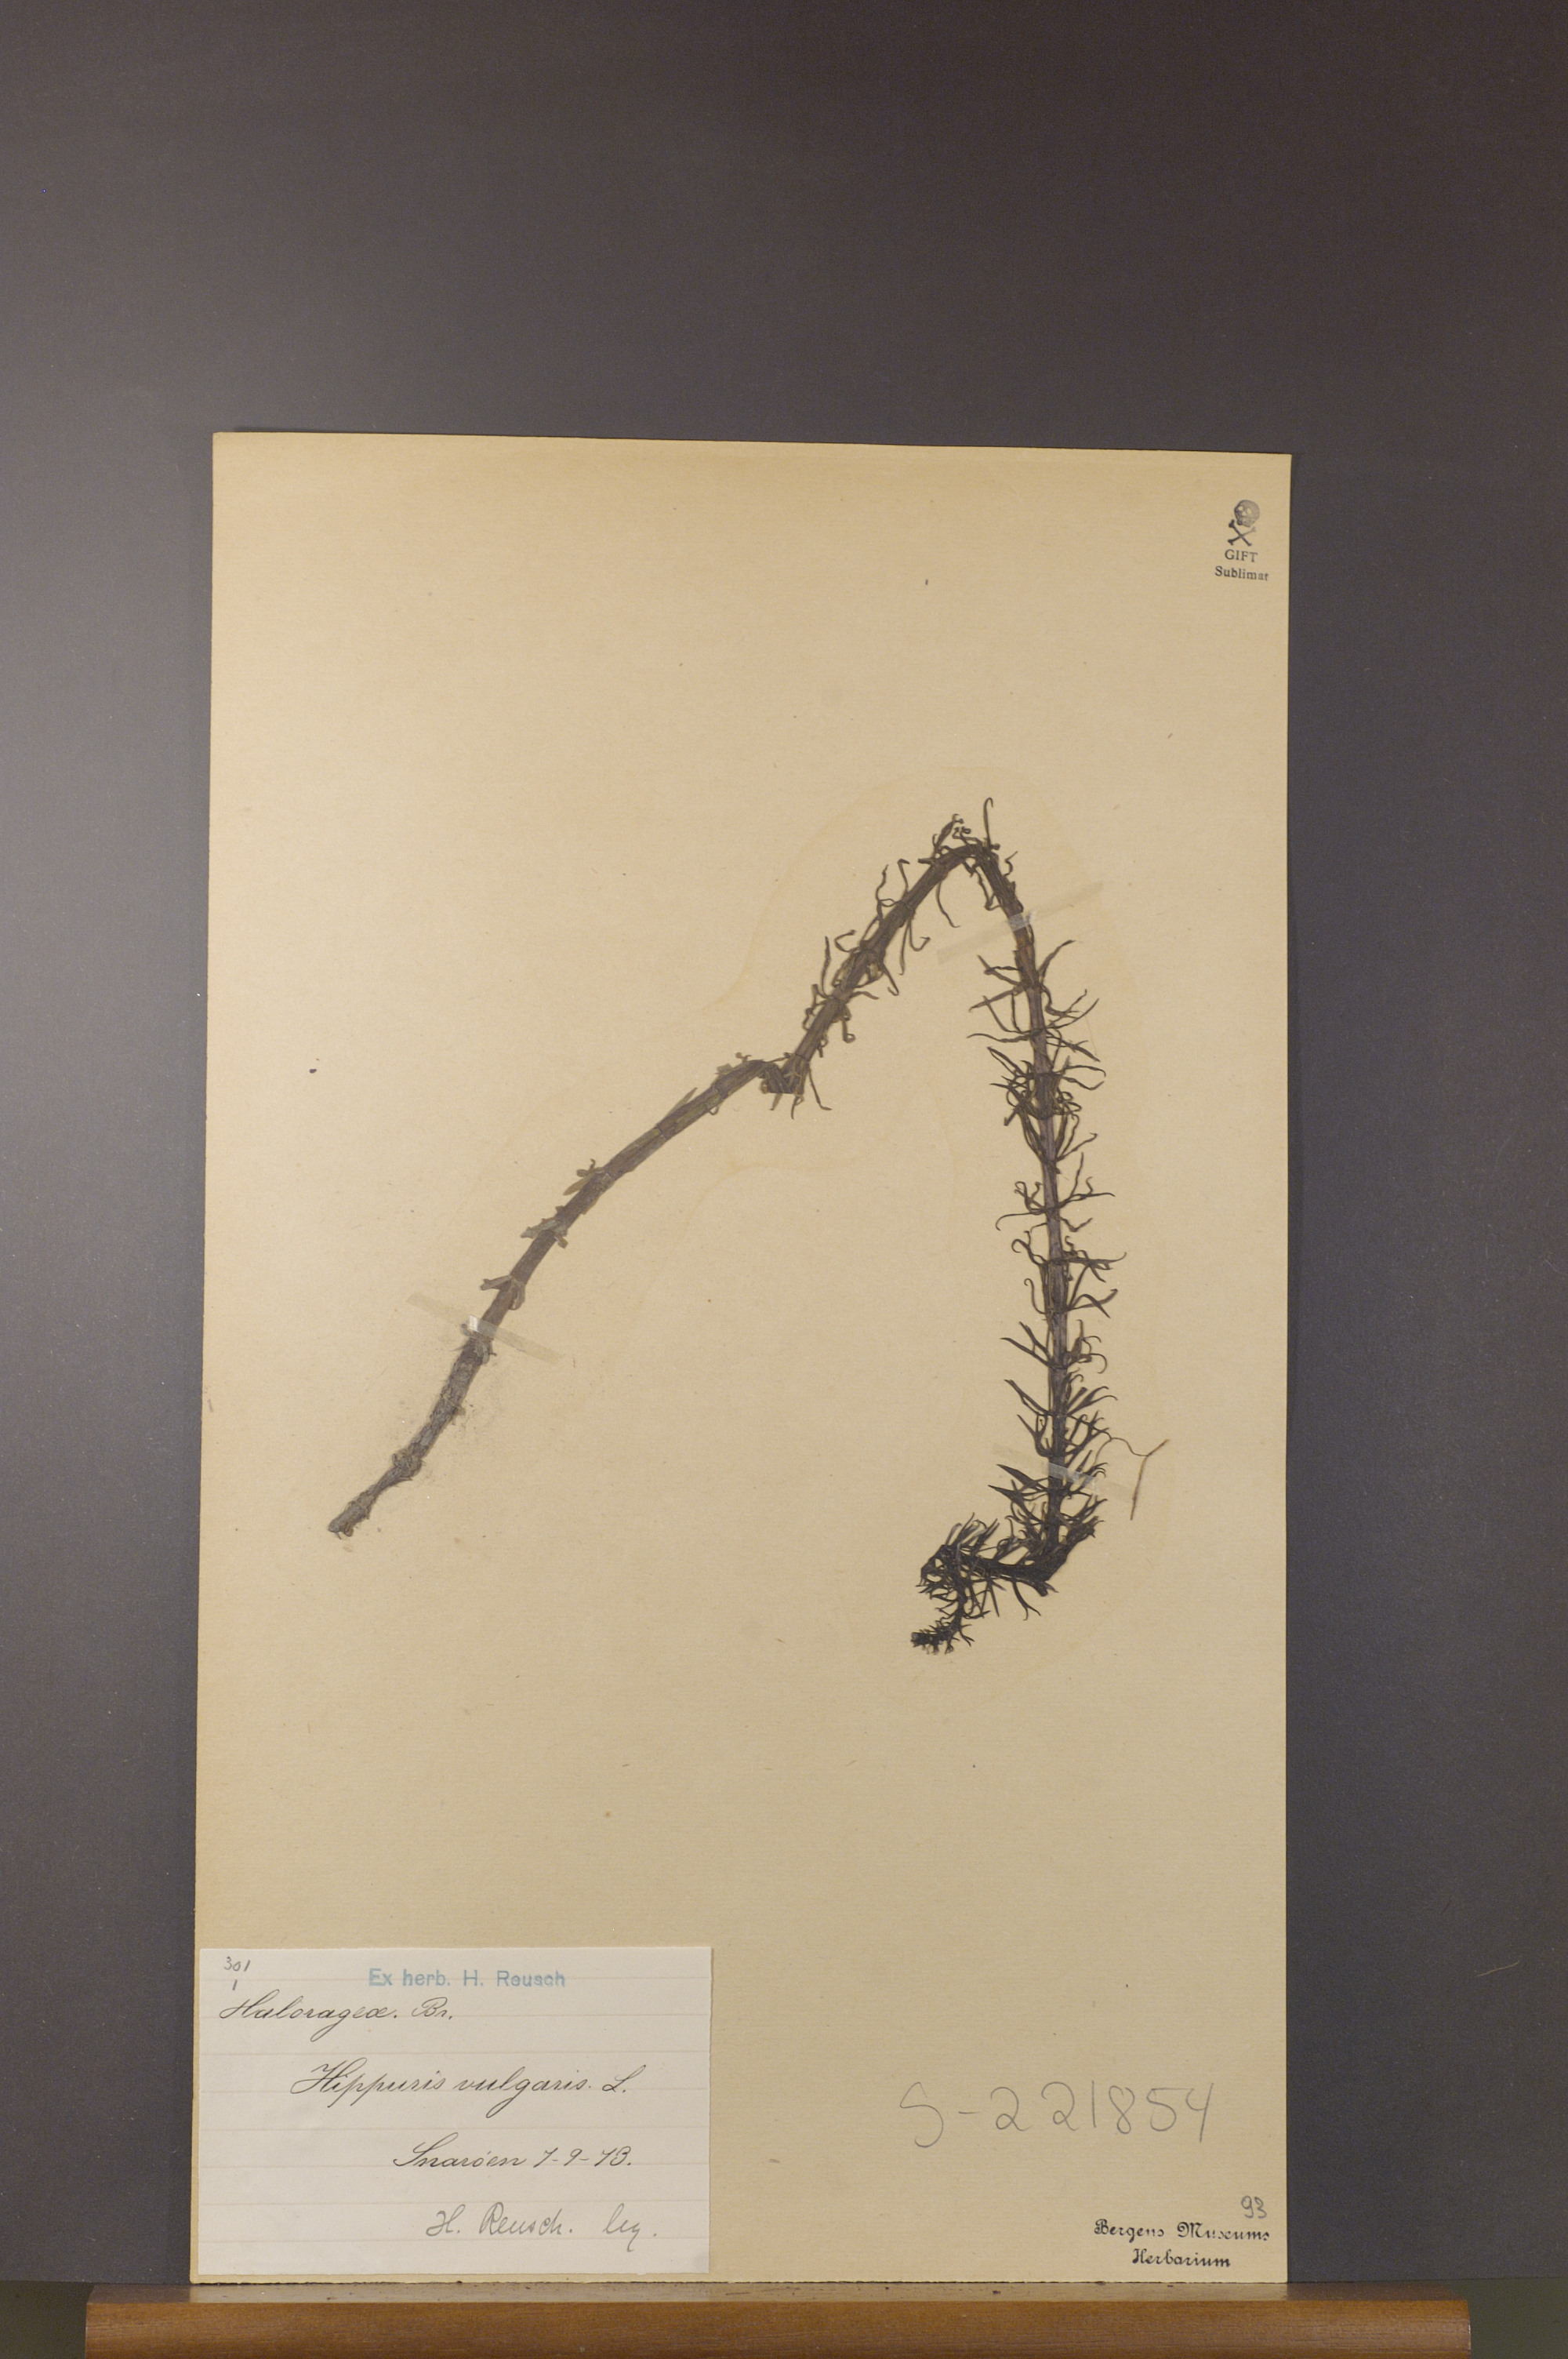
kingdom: Plantae
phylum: Tracheophyta
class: Magnoliopsida
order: Lamiales
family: Plantaginaceae
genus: Hippuris
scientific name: Hippuris vulgaris
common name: Mare's-tail
